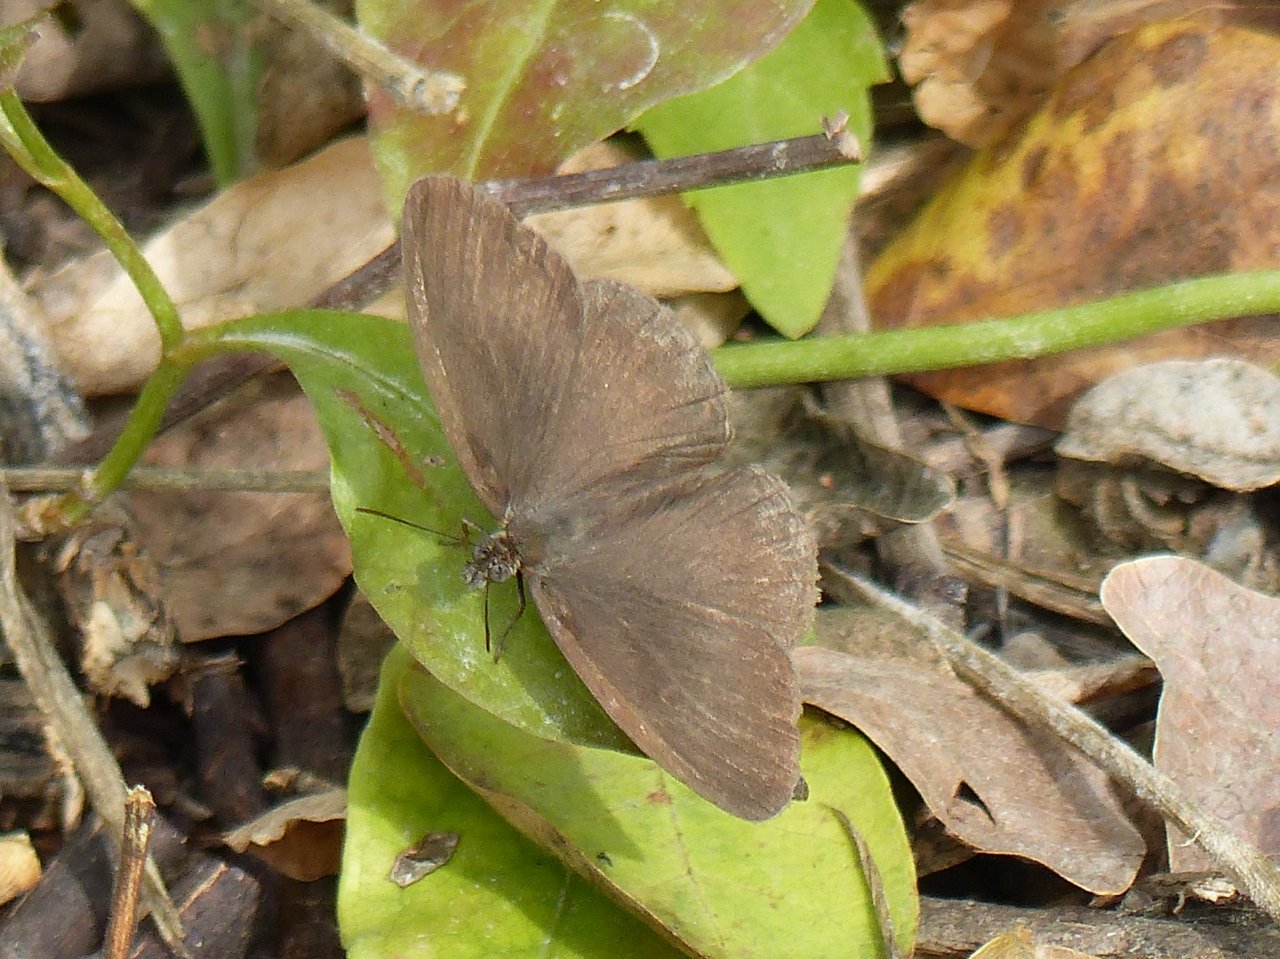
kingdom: Animalia
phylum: Arthropoda
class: Insecta
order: Lepidoptera
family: Nymphalidae
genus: Hermeuptychia
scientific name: Hermeuptychia hermybius
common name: South Texas Satyr
